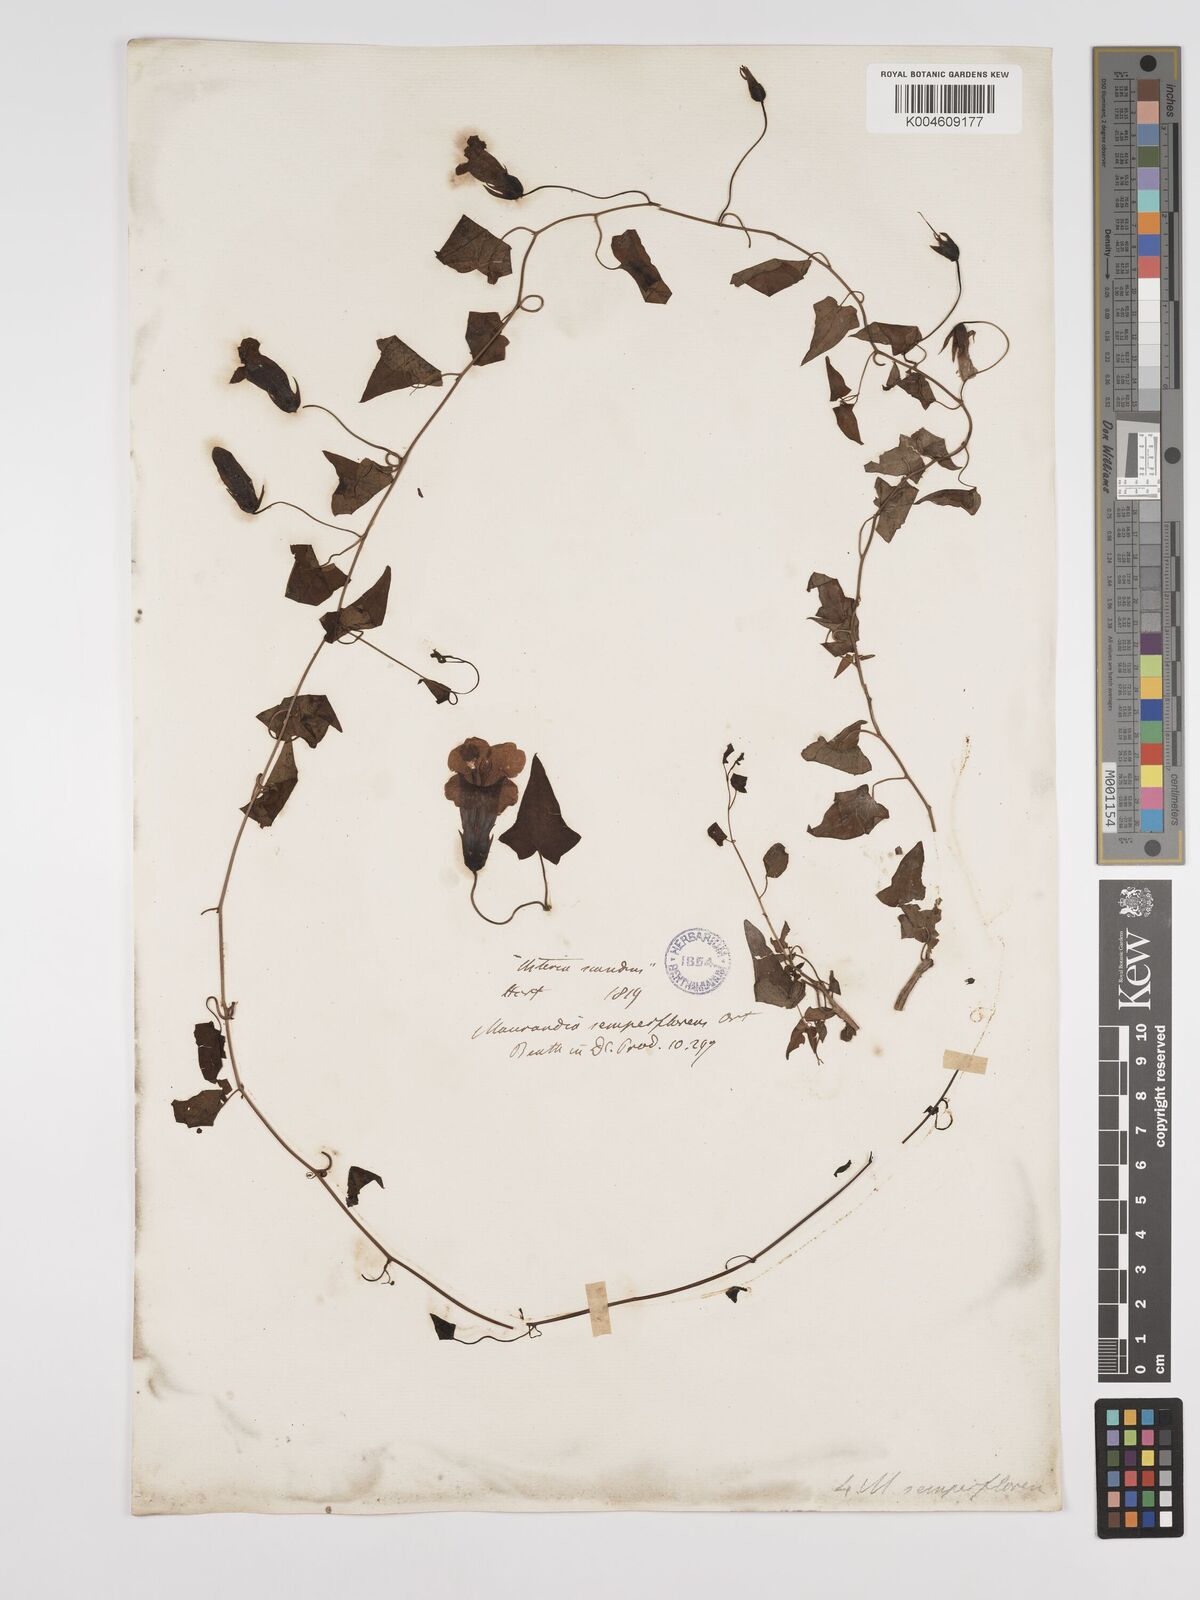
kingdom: Plantae
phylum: Tracheophyta
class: Magnoliopsida
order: Lamiales
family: Plantaginaceae
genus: Maurandya
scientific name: Maurandya scandens
